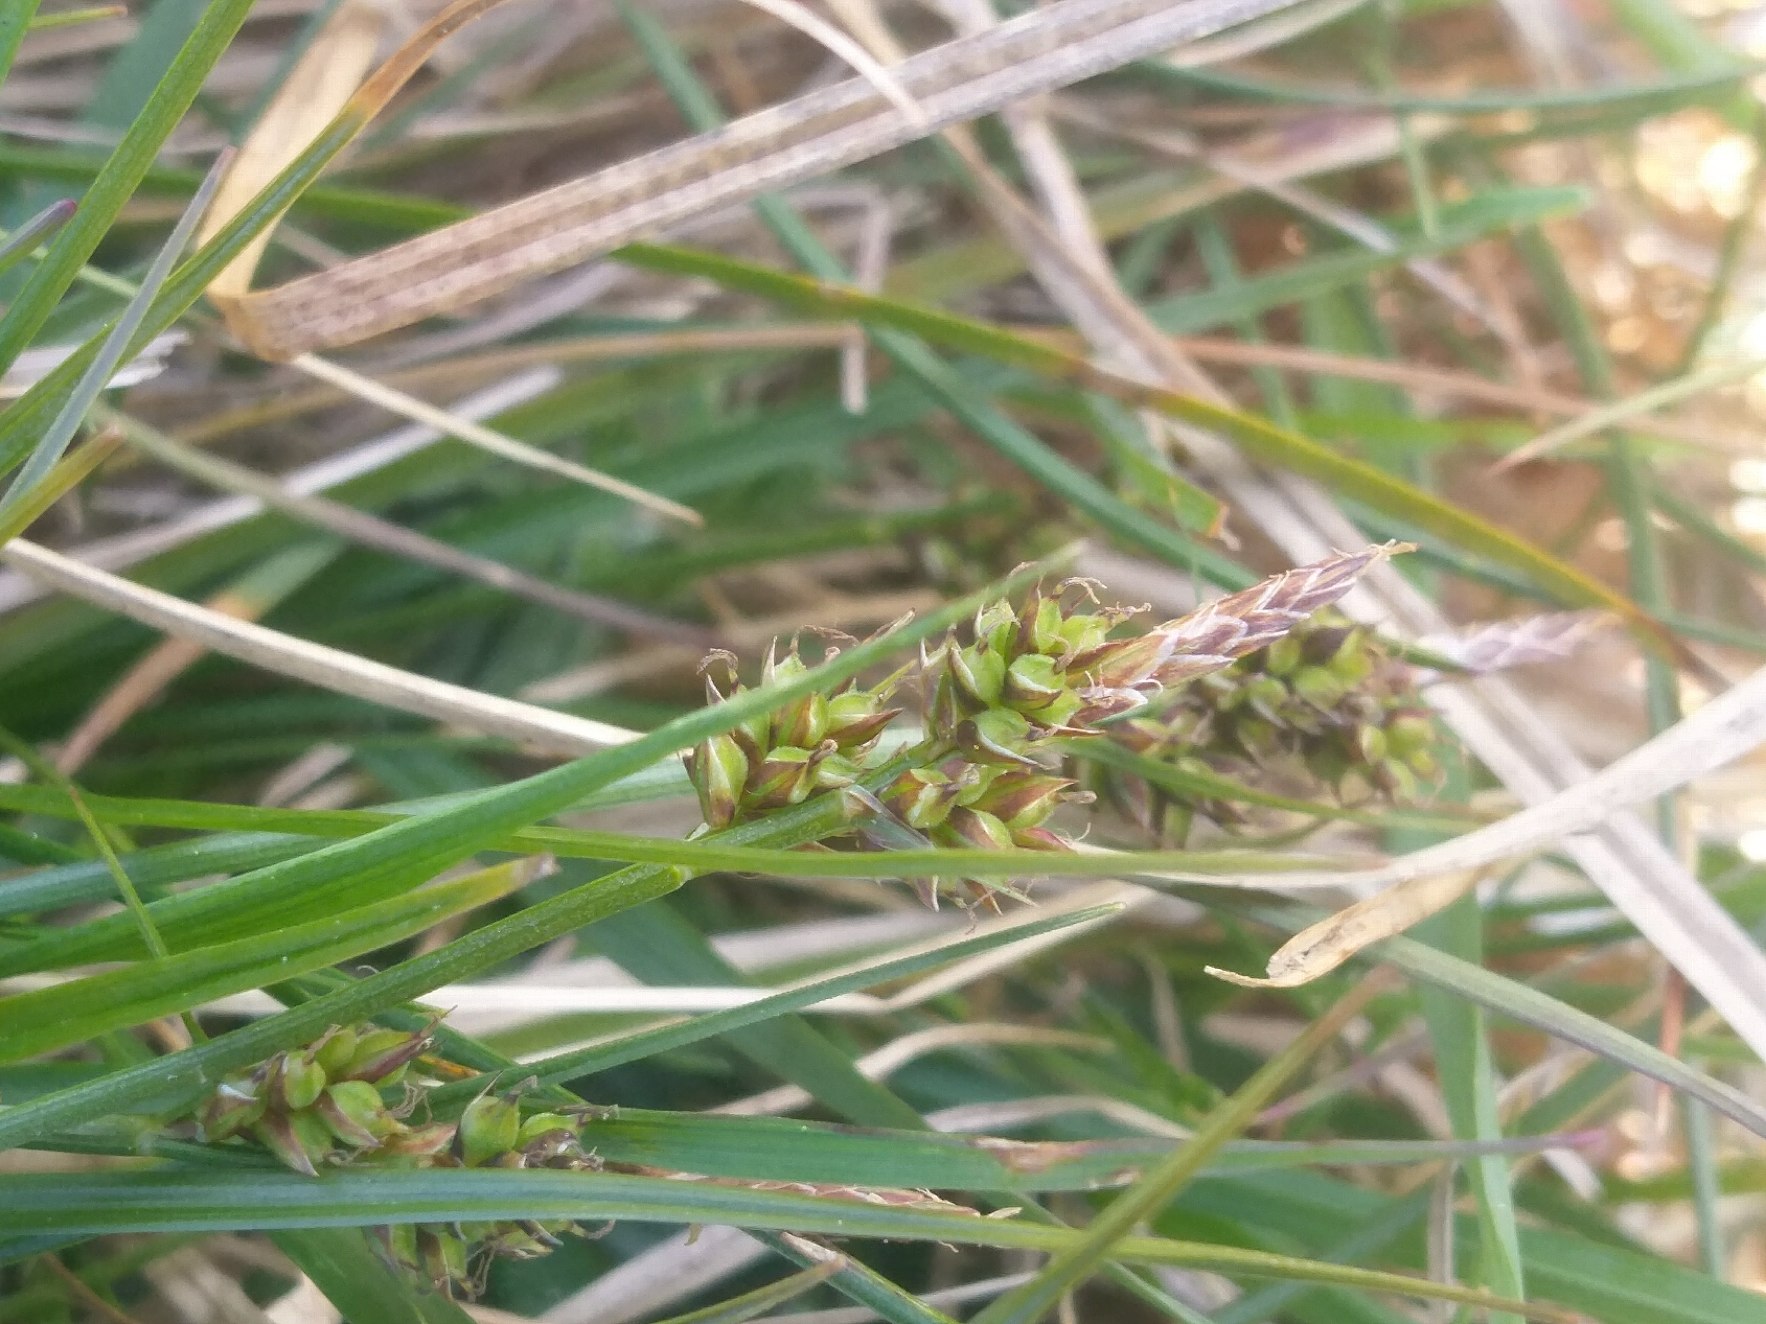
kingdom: Plantae
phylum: Tracheophyta
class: Liliopsida
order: Poales
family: Cyperaceae
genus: Carex
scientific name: Carex pilulifera
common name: Pille-star
